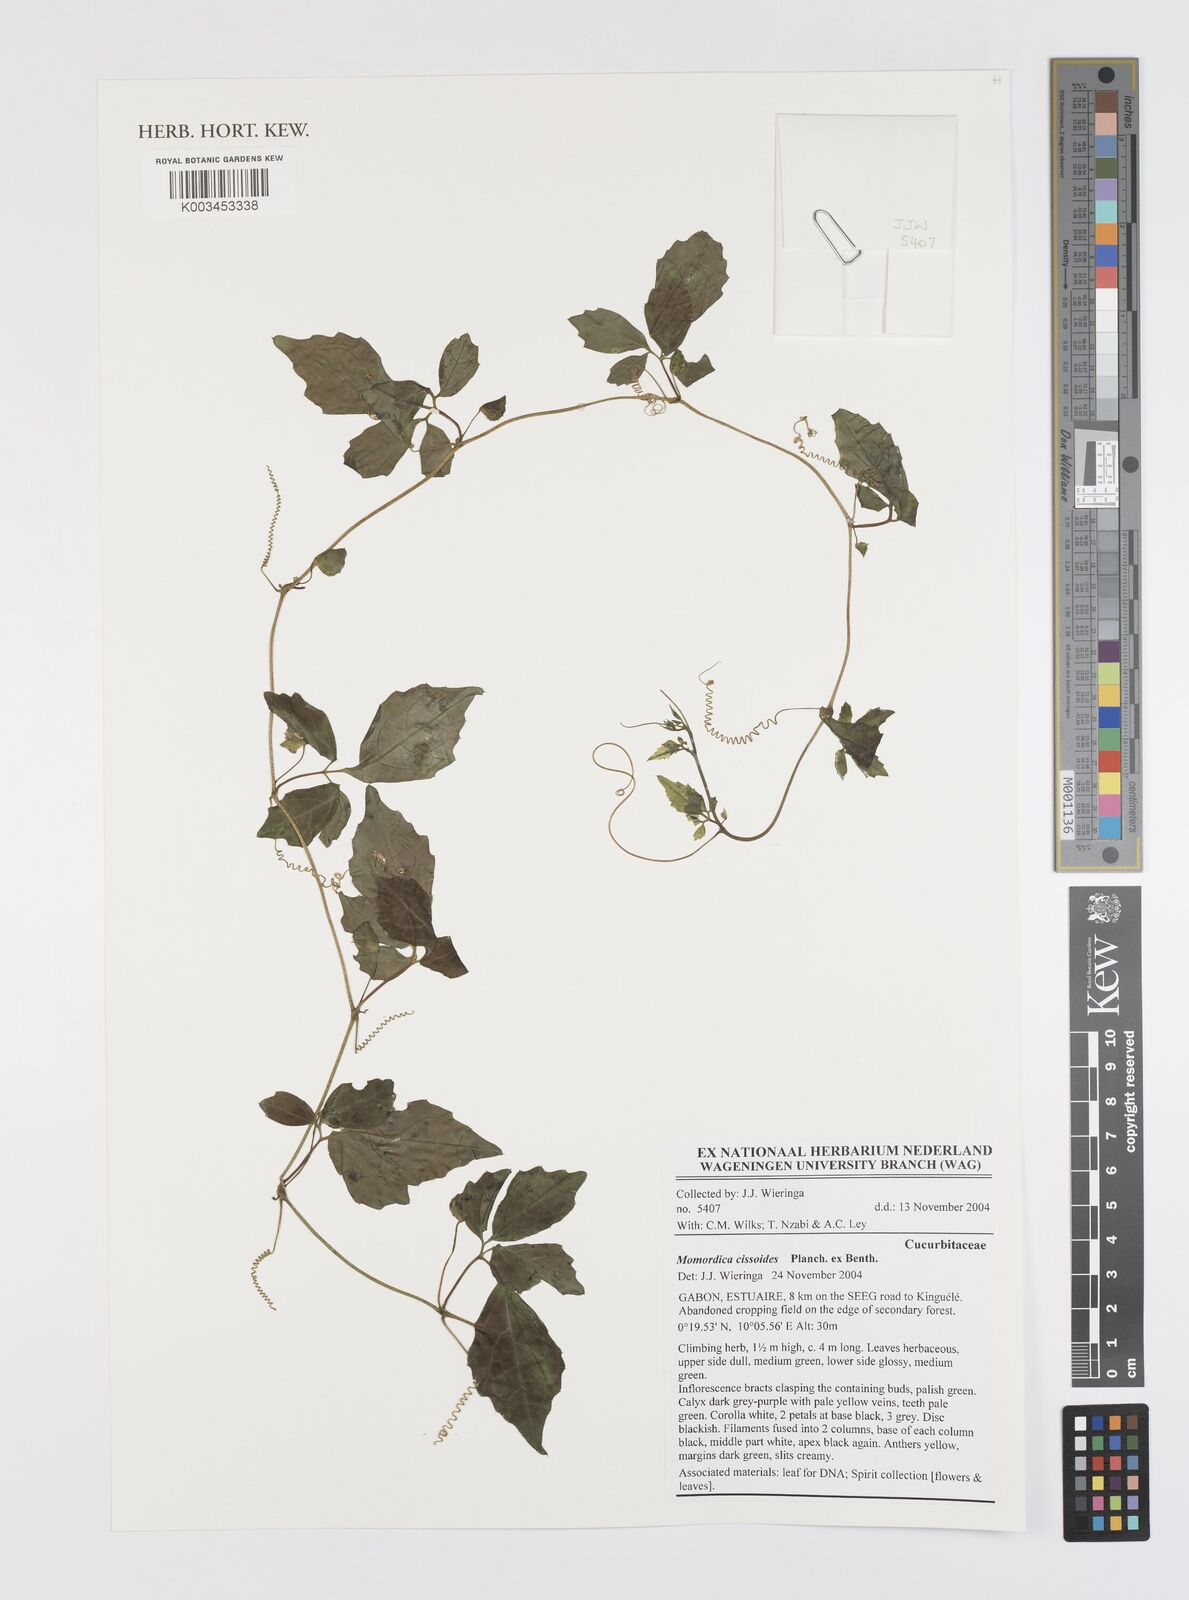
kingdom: Plantae
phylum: Tracheophyta
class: Magnoliopsida
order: Cucurbitales
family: Cucurbitaceae
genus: Momordica
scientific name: Momordica cissoides
